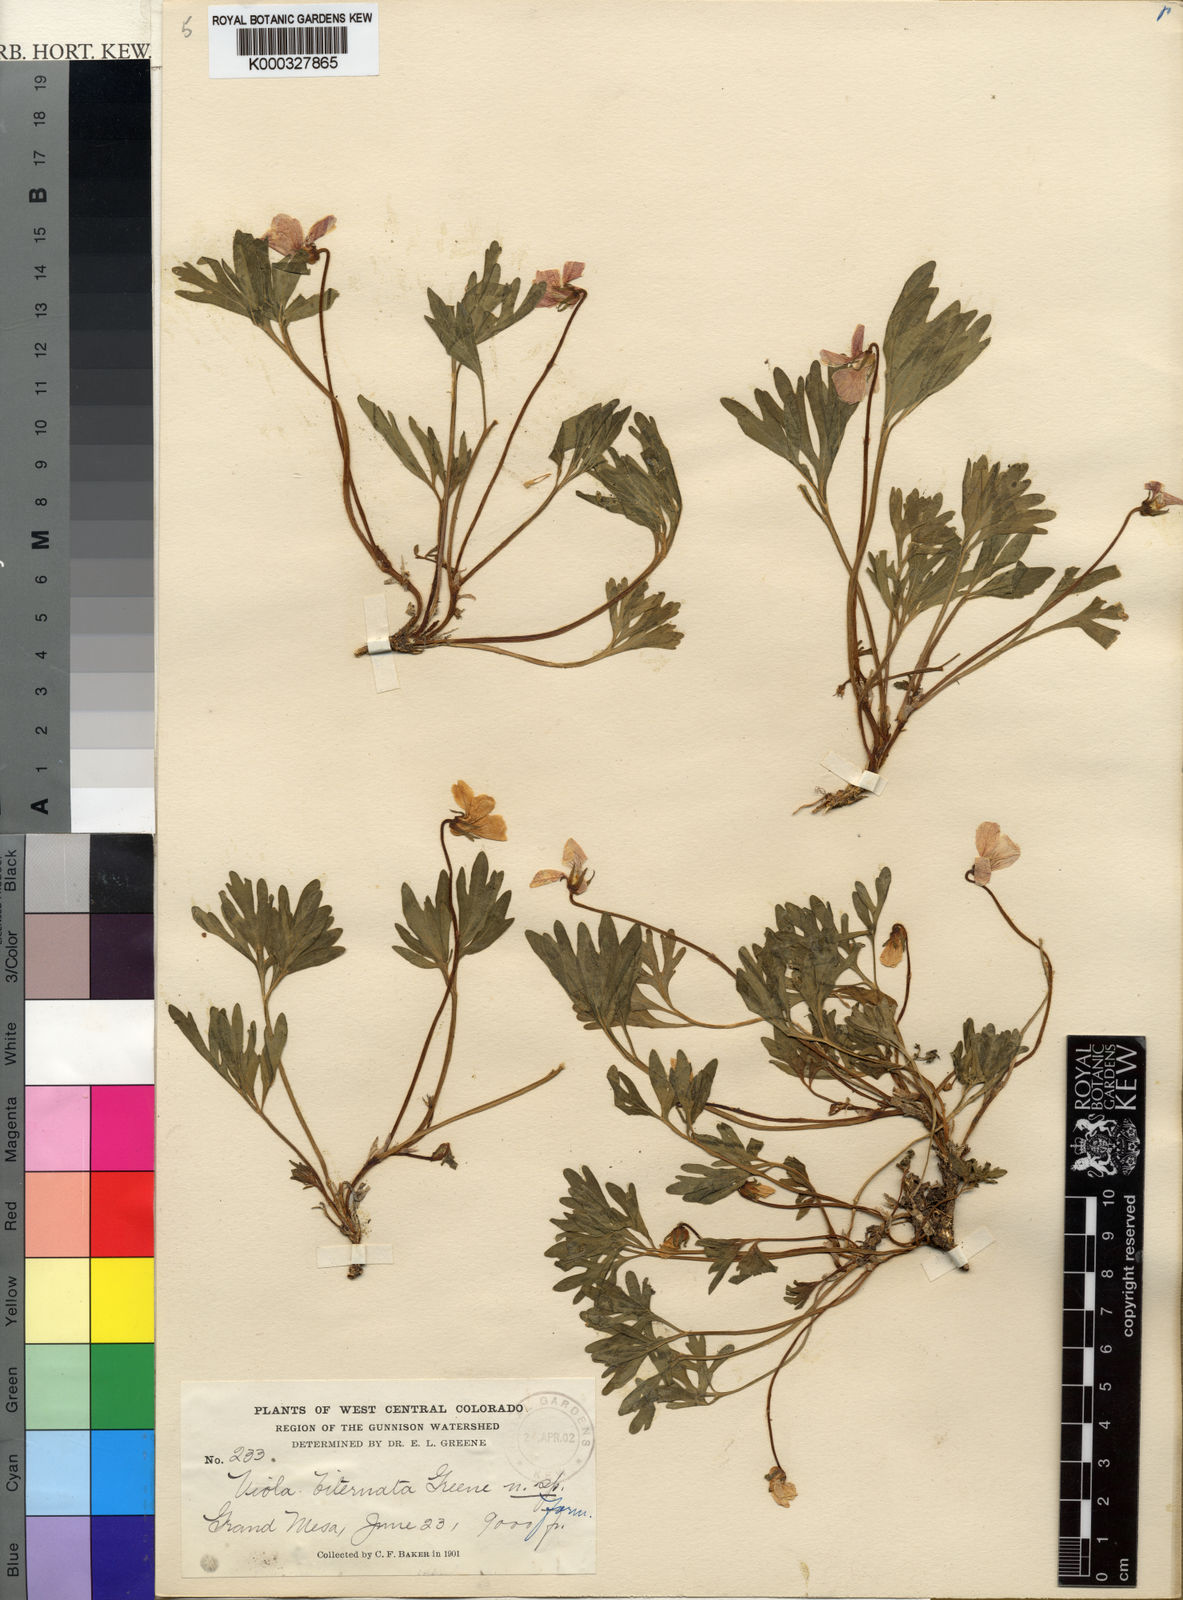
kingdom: Plantae
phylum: Tracheophyta
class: Magnoliopsida
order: Malpighiales
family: Violaceae
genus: Viola
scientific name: Viola sheltonii
